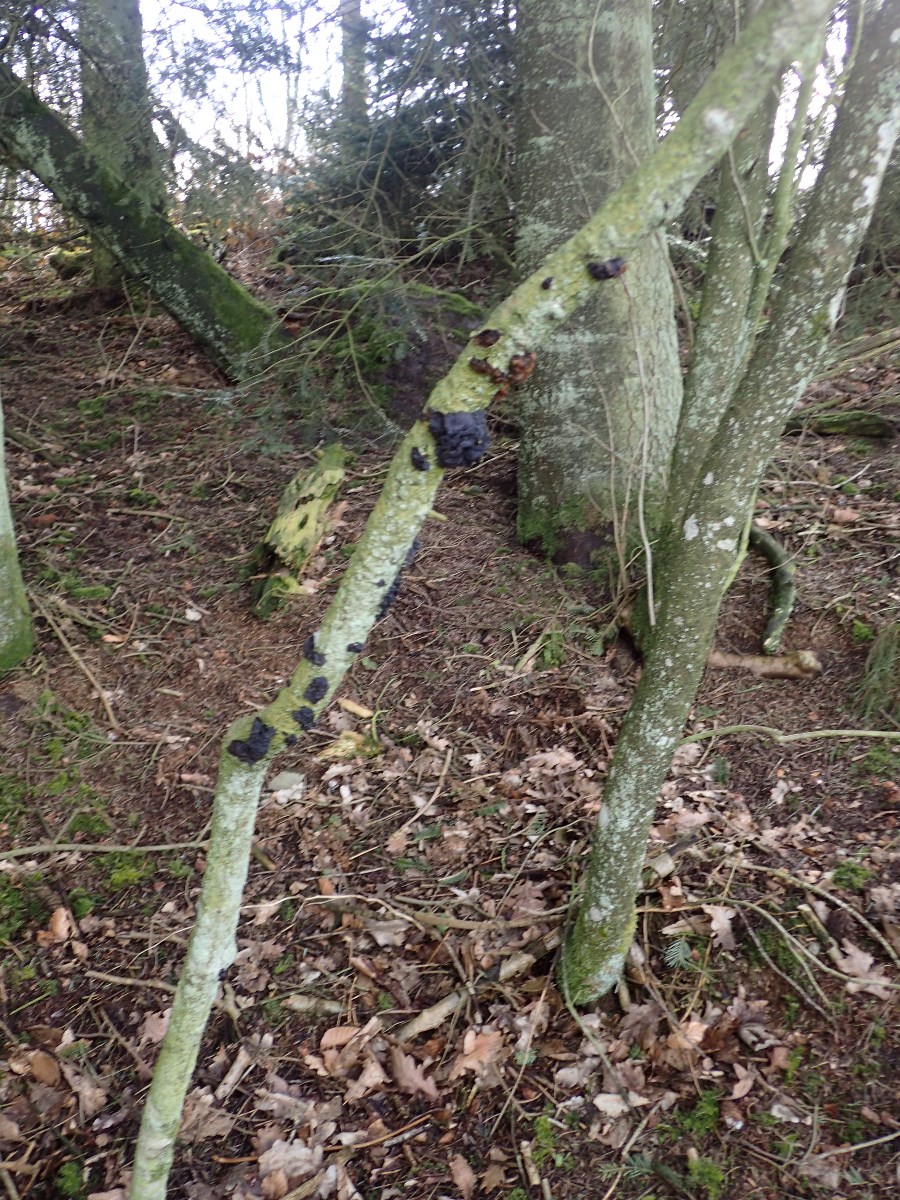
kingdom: Fungi
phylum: Basidiomycota
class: Agaricomycetes
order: Auriculariales
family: Auriculariaceae
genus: Exidia
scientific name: Exidia glandulosa
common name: ege-bævretop
